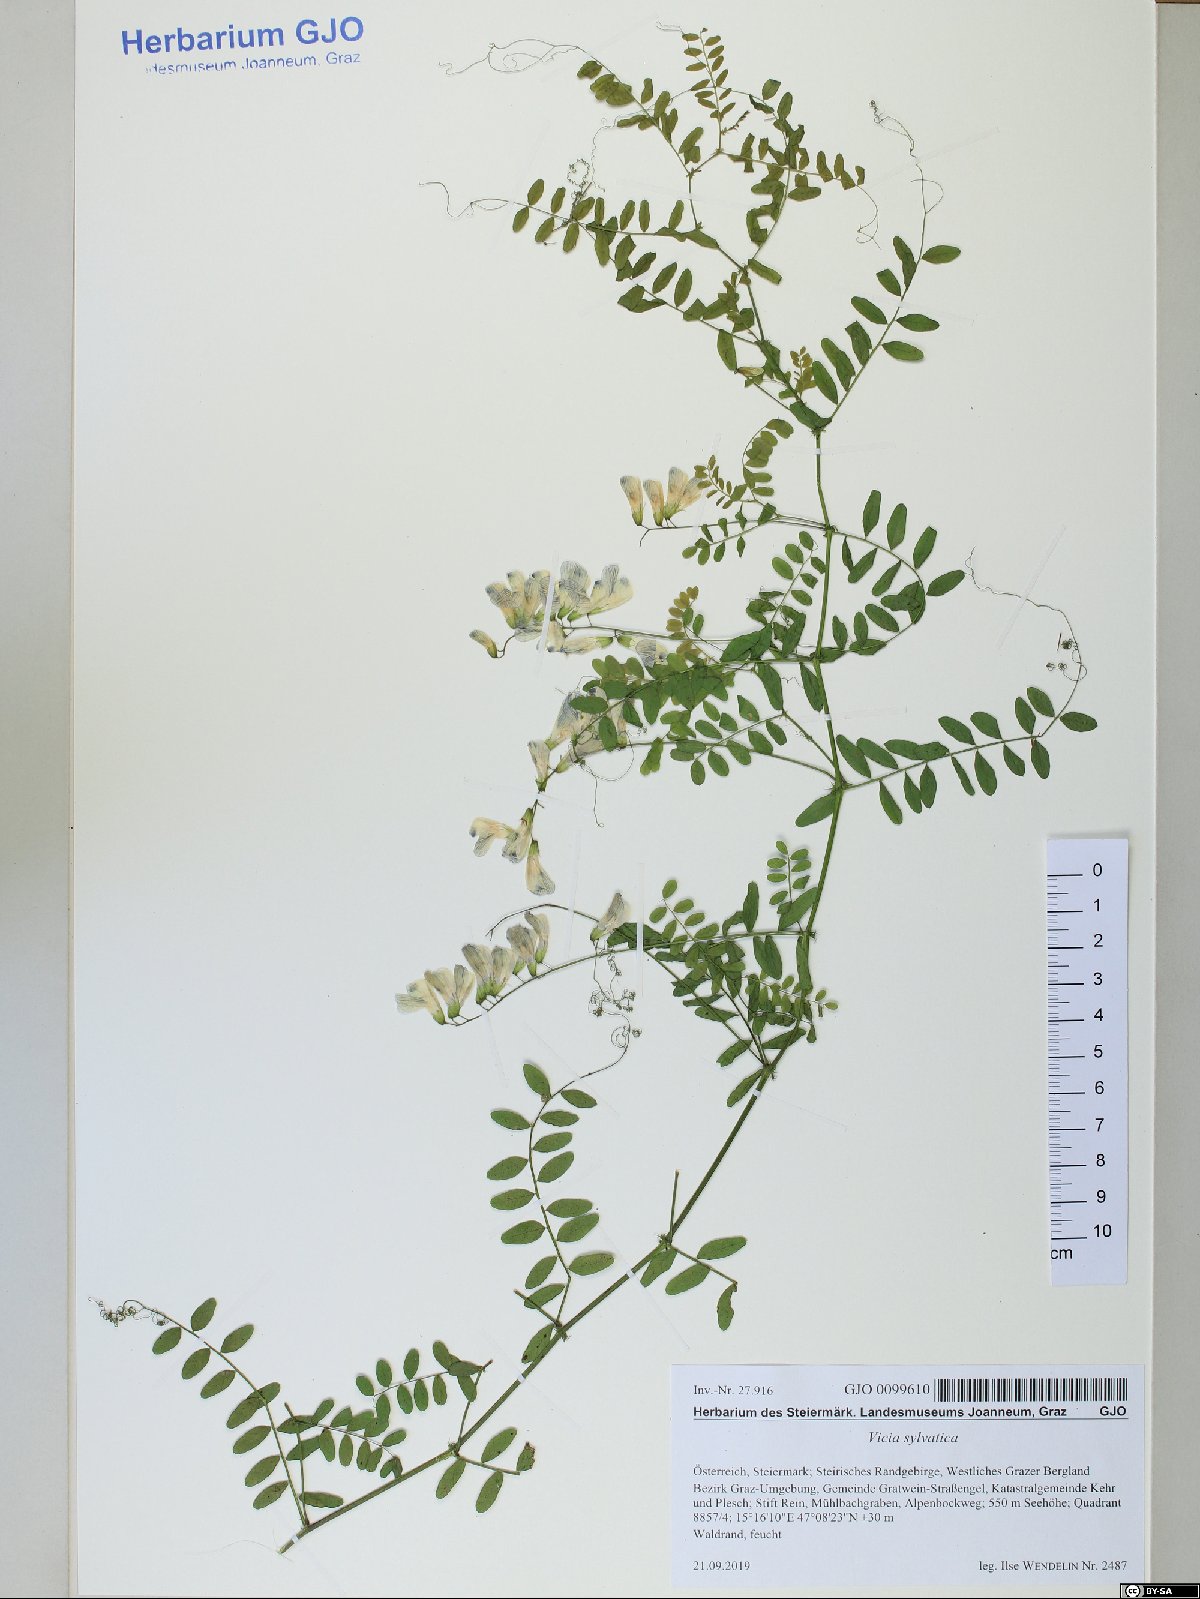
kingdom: Plantae
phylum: Tracheophyta
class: Magnoliopsida
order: Fabales
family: Fabaceae
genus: Vicia
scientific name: Vicia sylvatica
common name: Wood vetch
